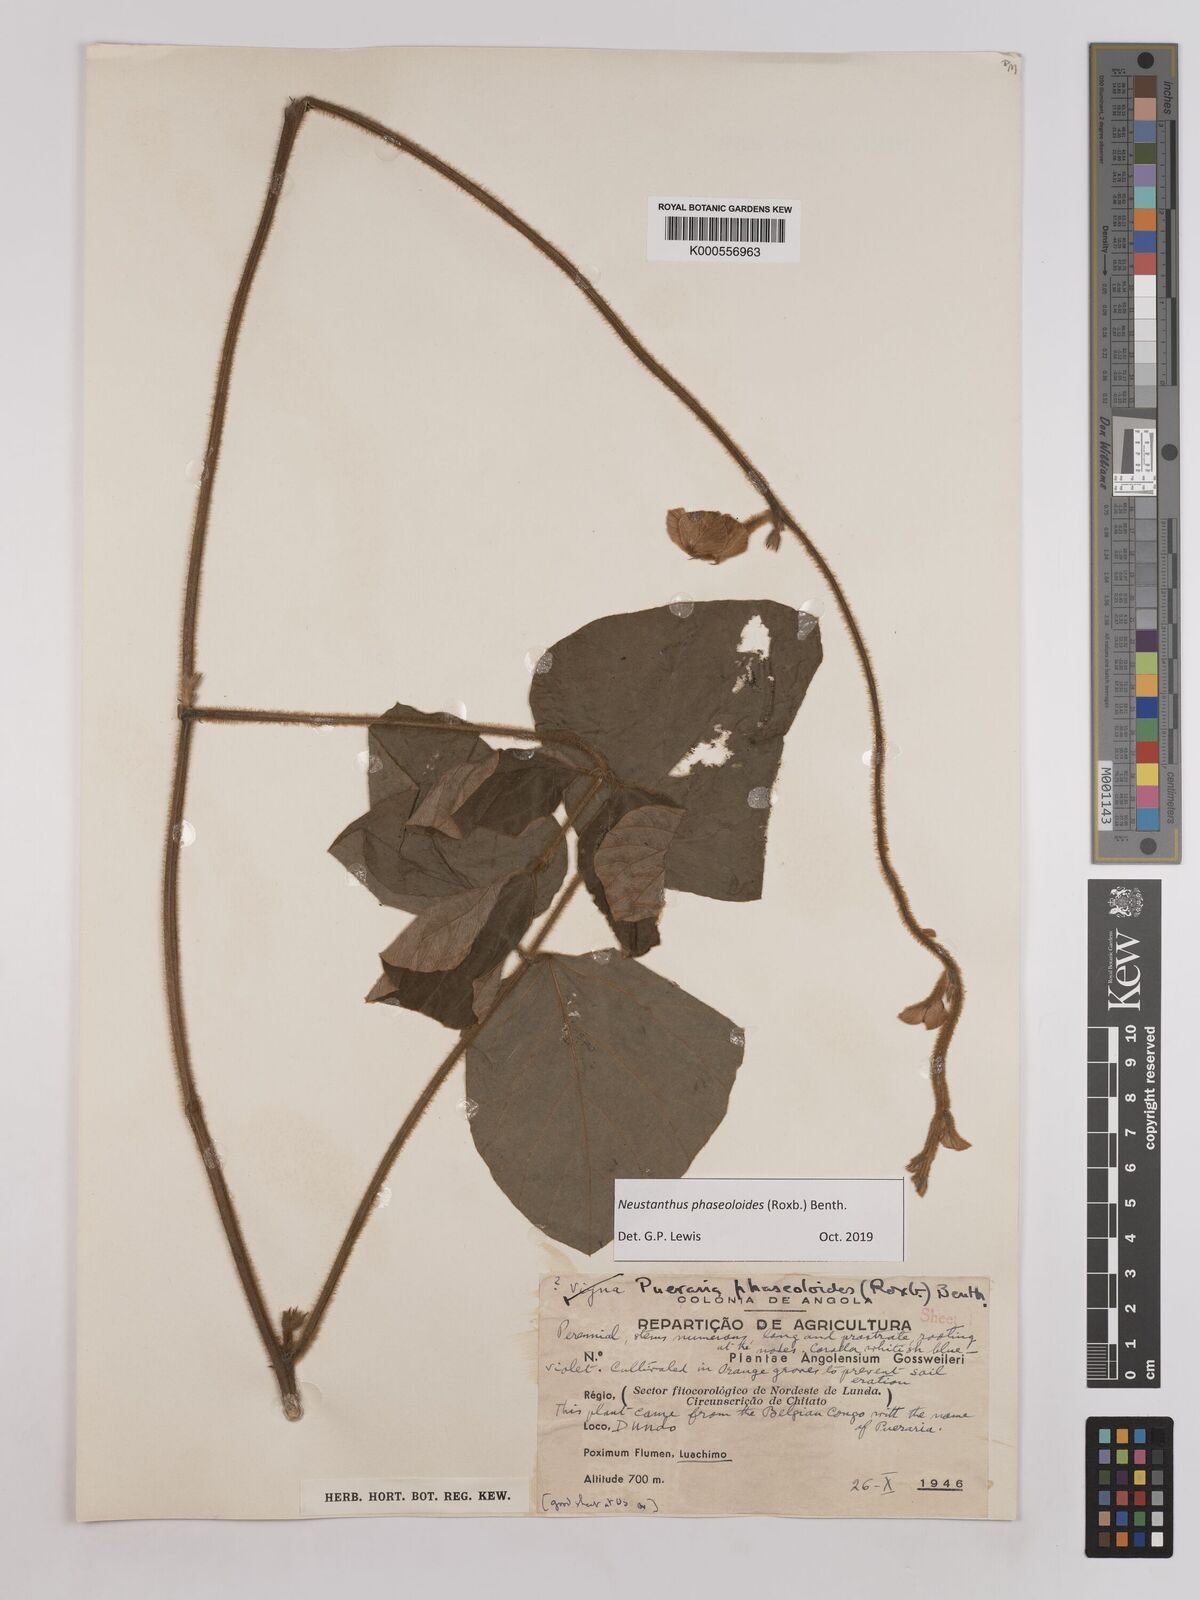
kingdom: Plantae
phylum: Tracheophyta
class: Magnoliopsida
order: Fabales
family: Fabaceae
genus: Neustanthus
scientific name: Neustanthus phaseoloides
